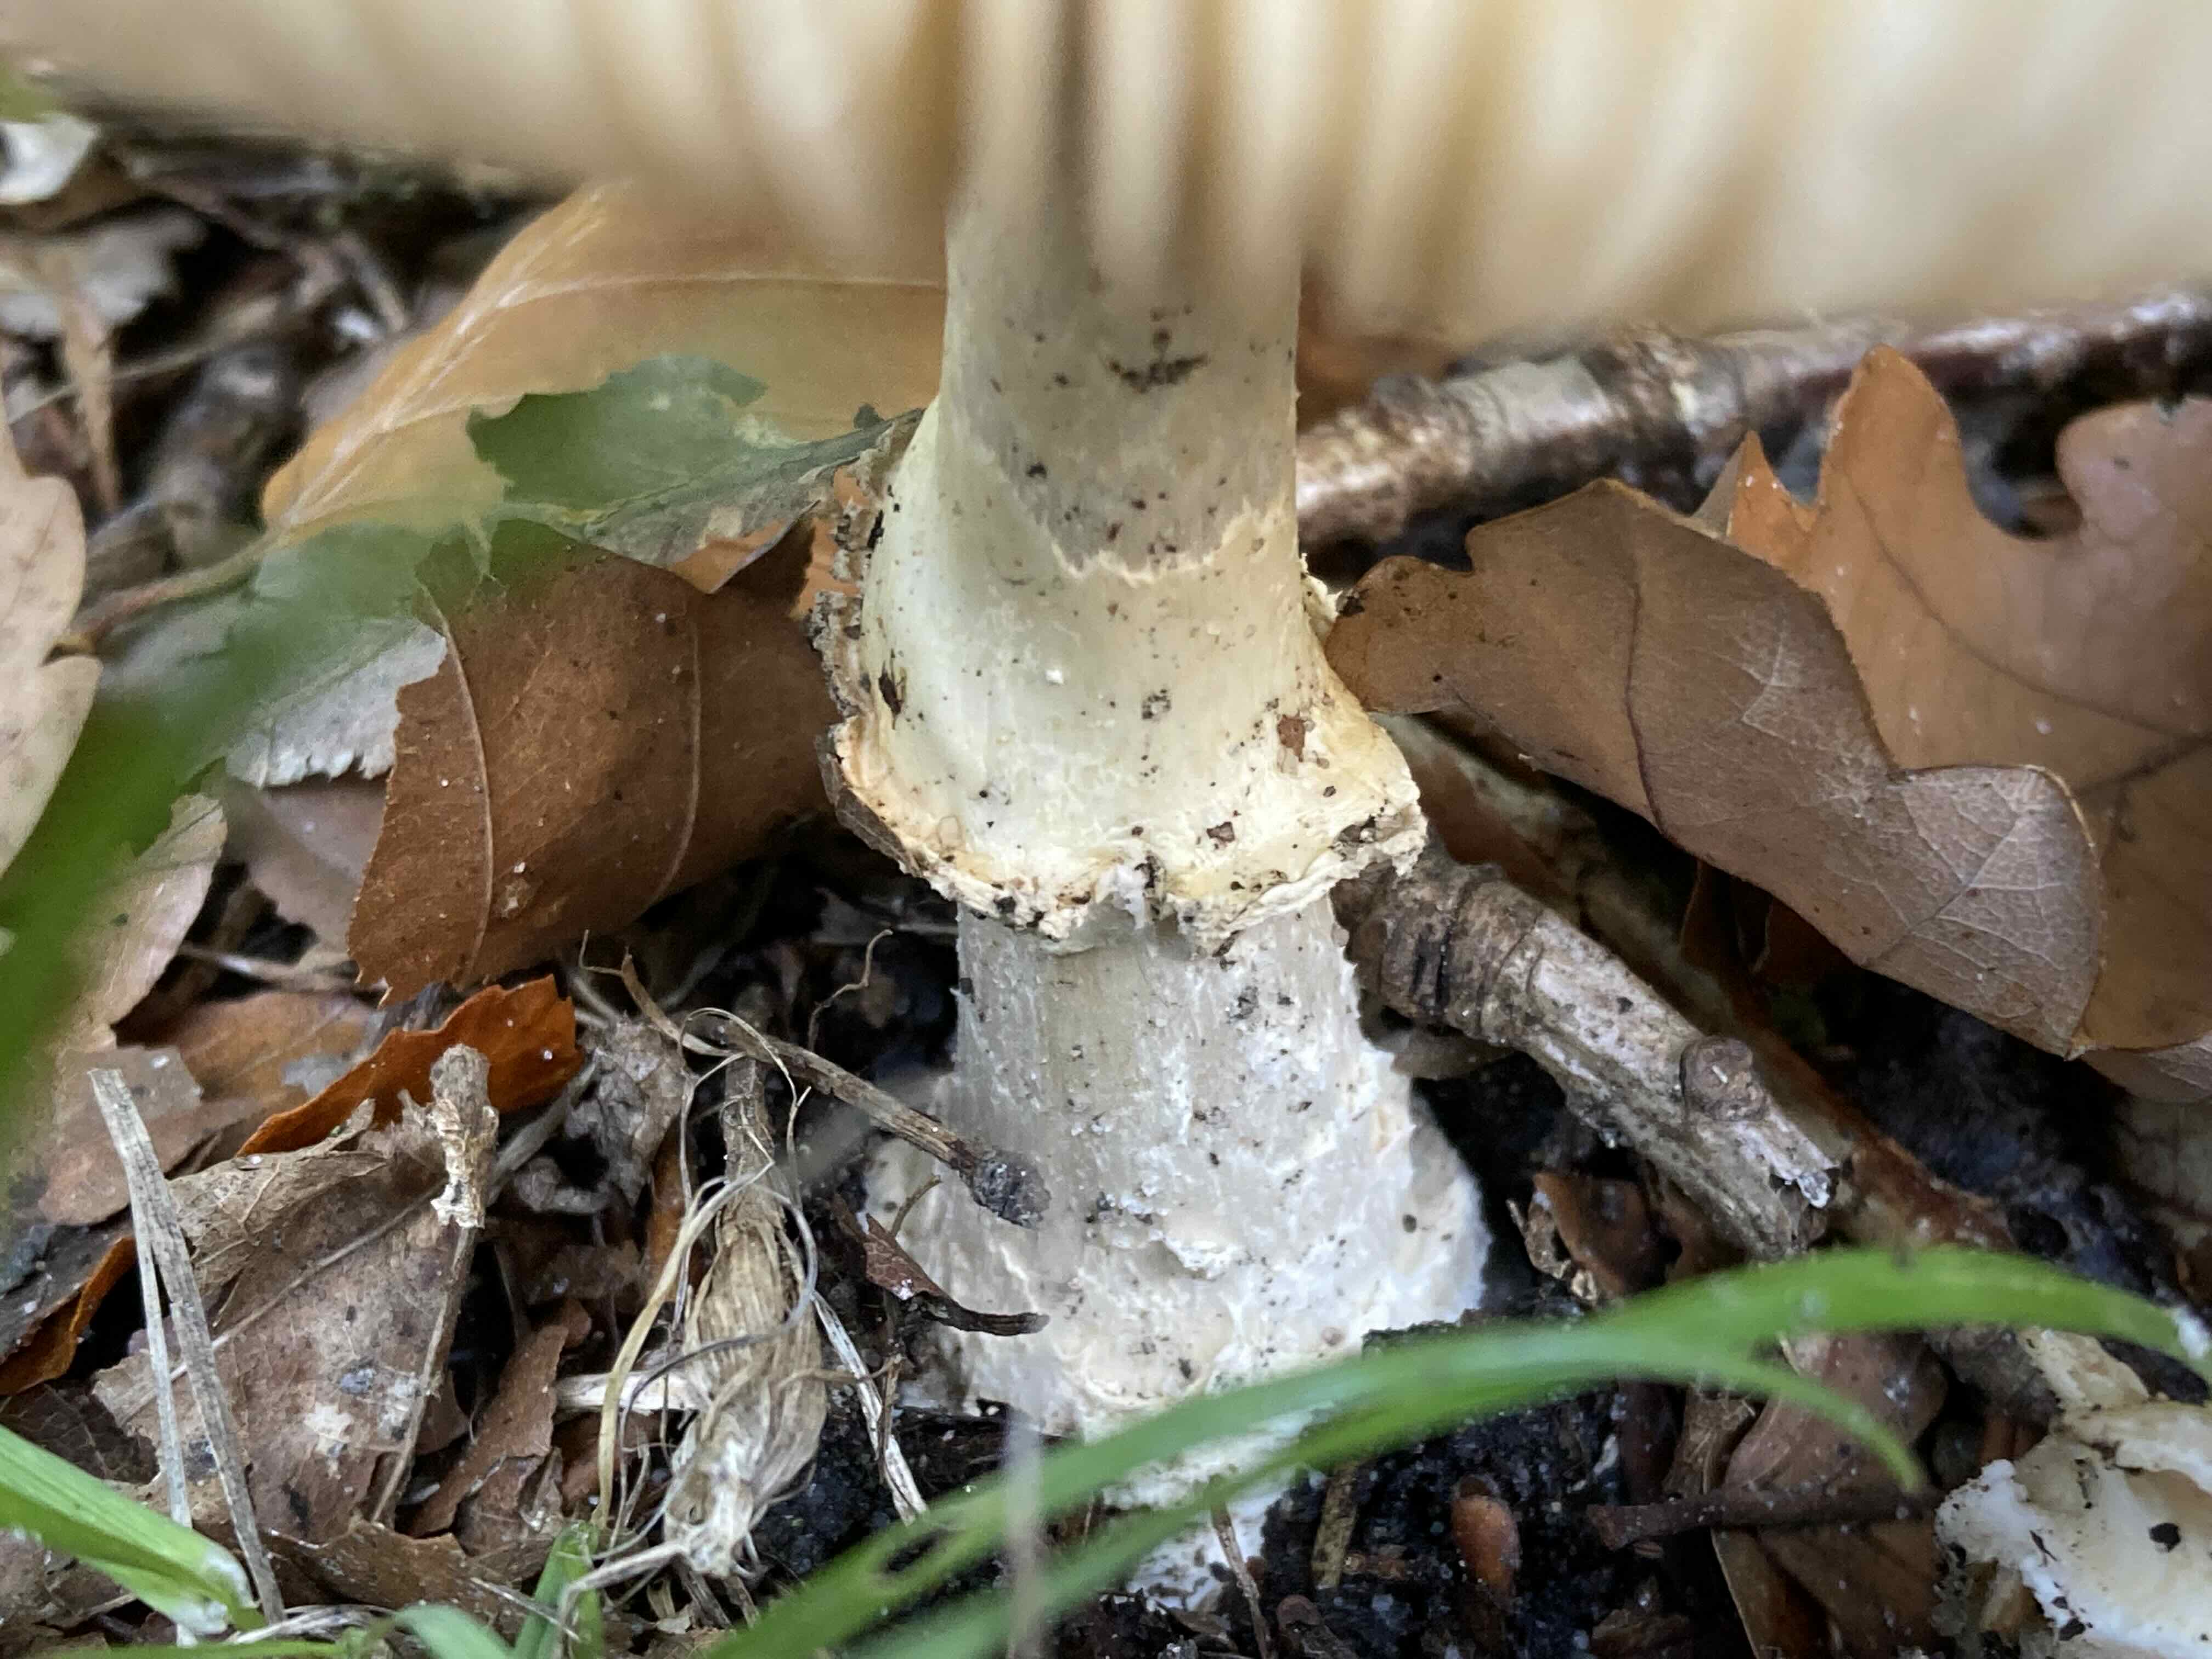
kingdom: Fungi
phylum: Basidiomycota
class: Agaricomycetes
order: Agaricales
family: Amanitaceae
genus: Amanita
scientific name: Amanita pantherina
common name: panter-fluesvamp
